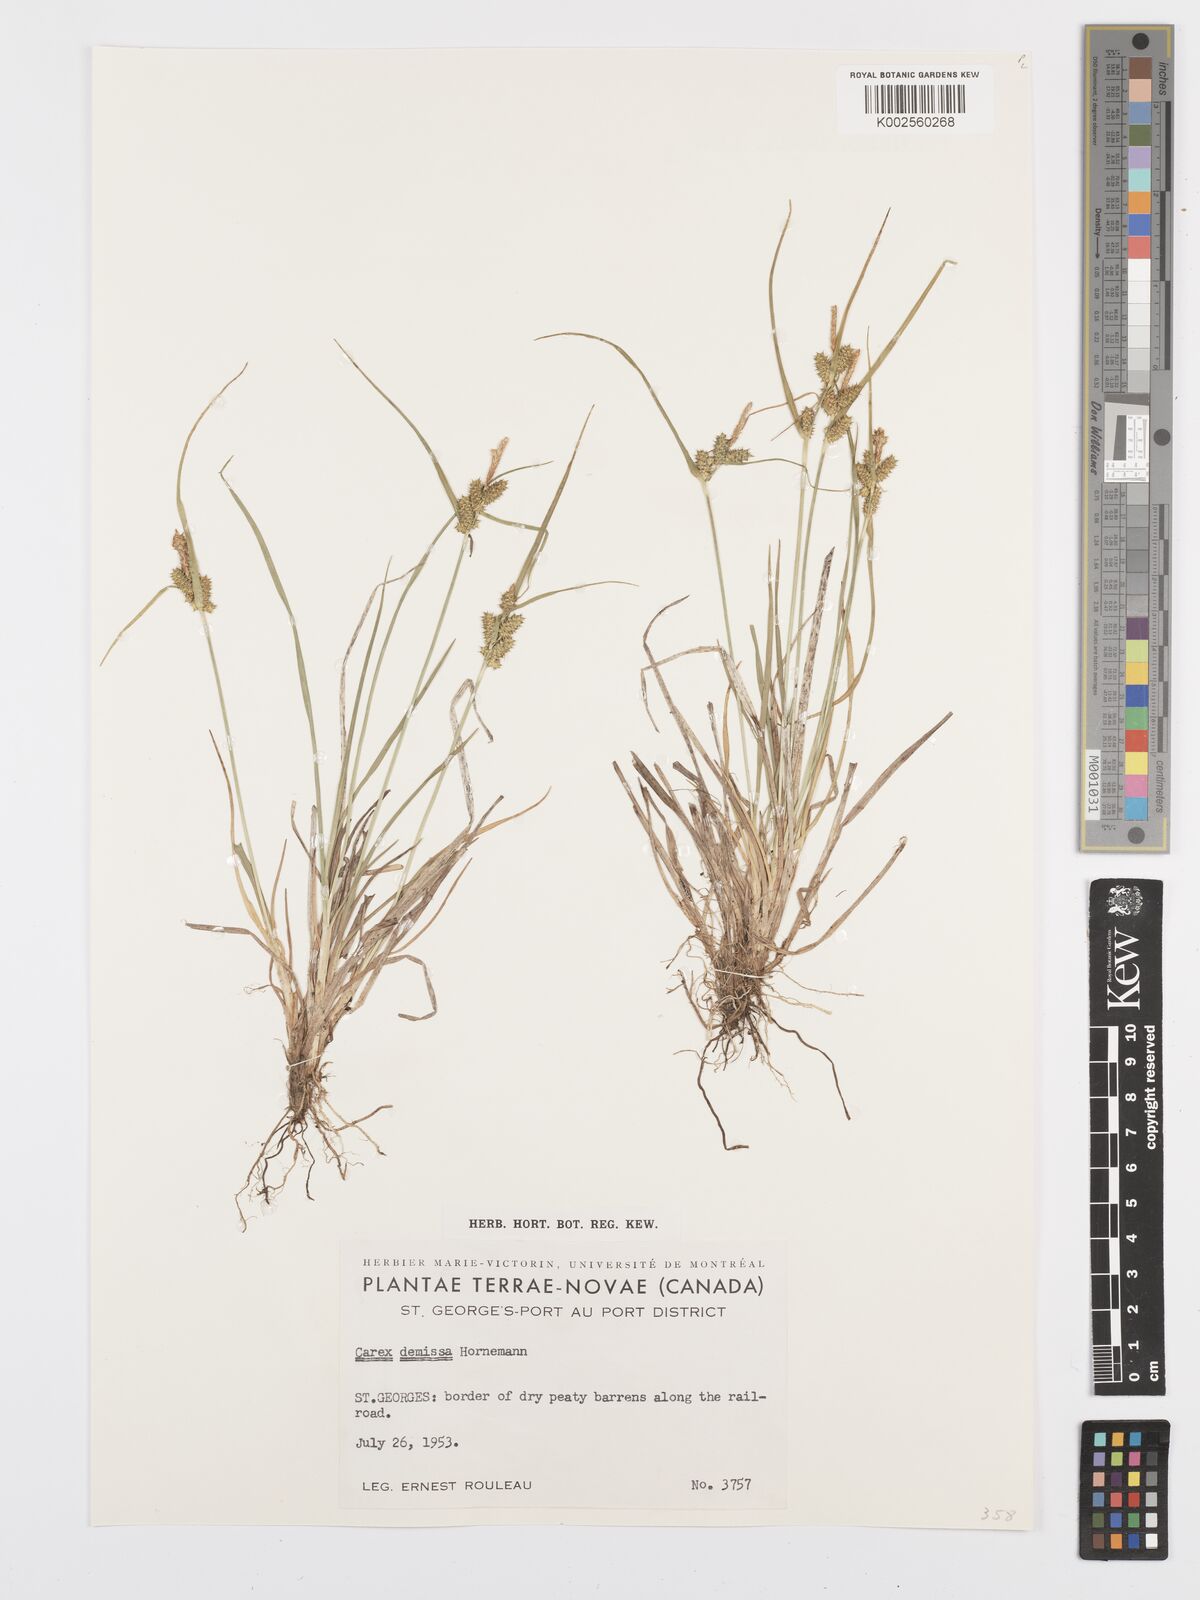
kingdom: Plantae
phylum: Tracheophyta
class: Liliopsida
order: Poales
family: Cyperaceae
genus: Carex
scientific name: Carex flava
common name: Large yellow-sedge
